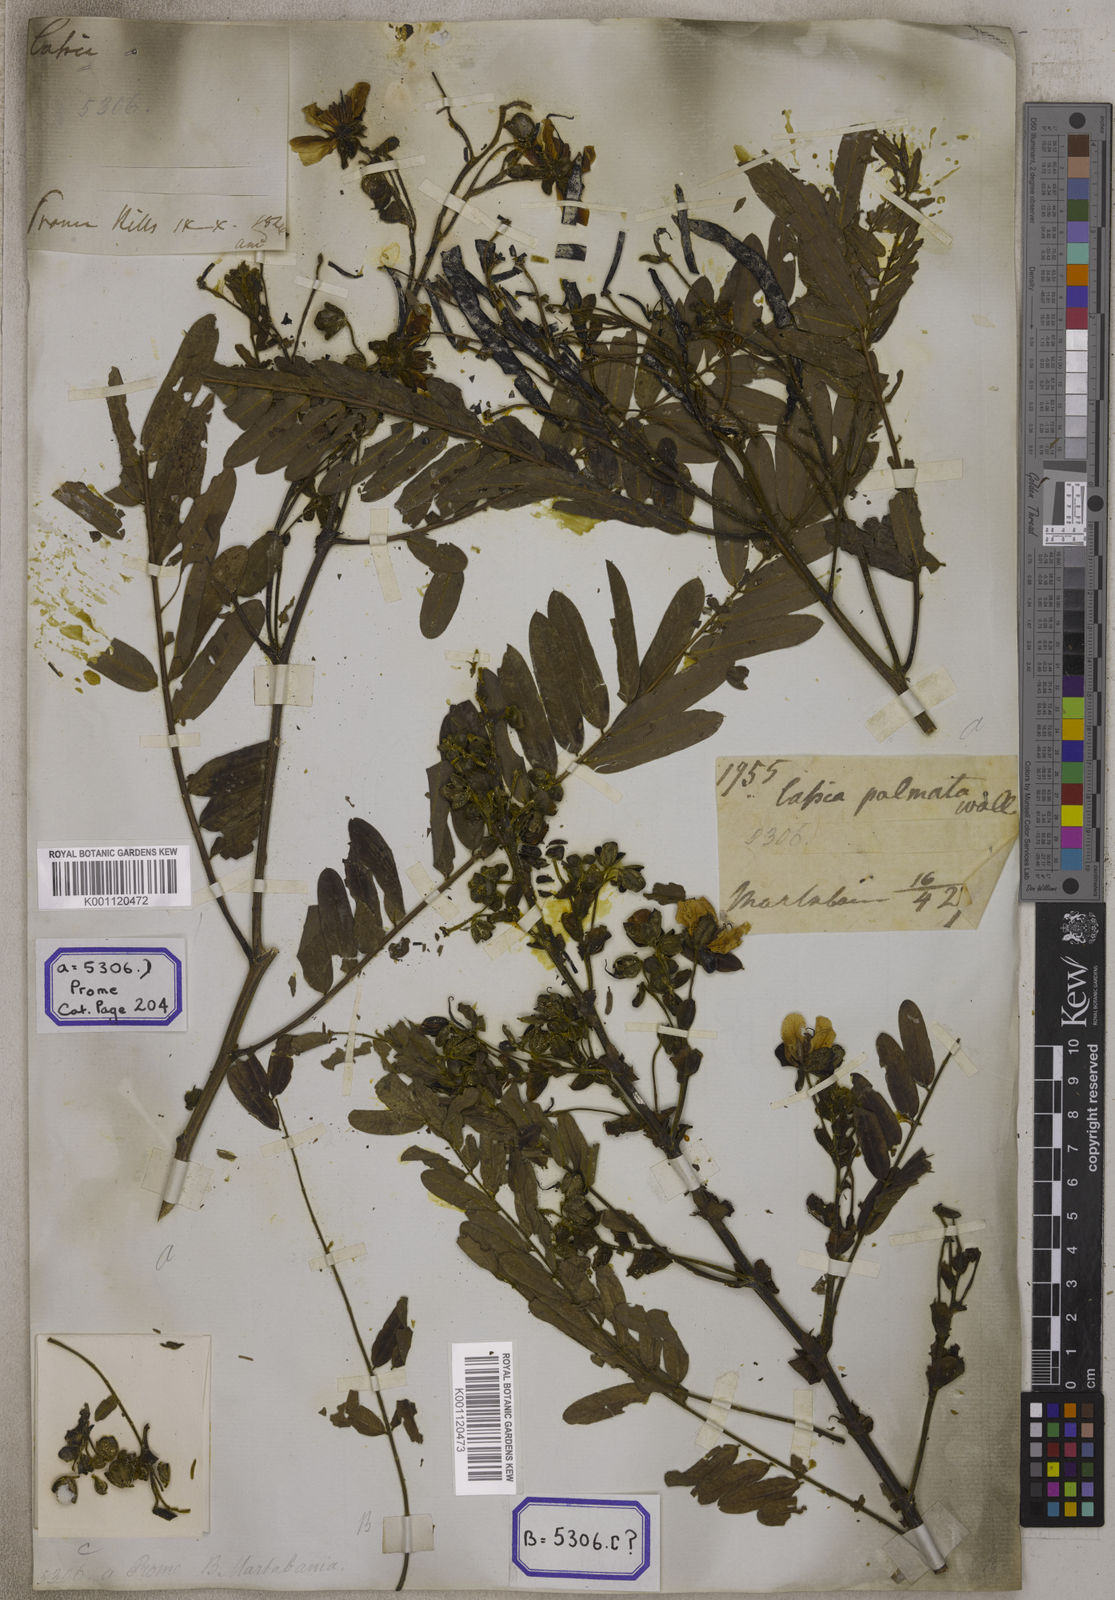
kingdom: Plantae
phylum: Tracheophyta
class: Magnoliopsida
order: Fabales
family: Fabaceae
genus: Senna
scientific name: Senna timoriensis
